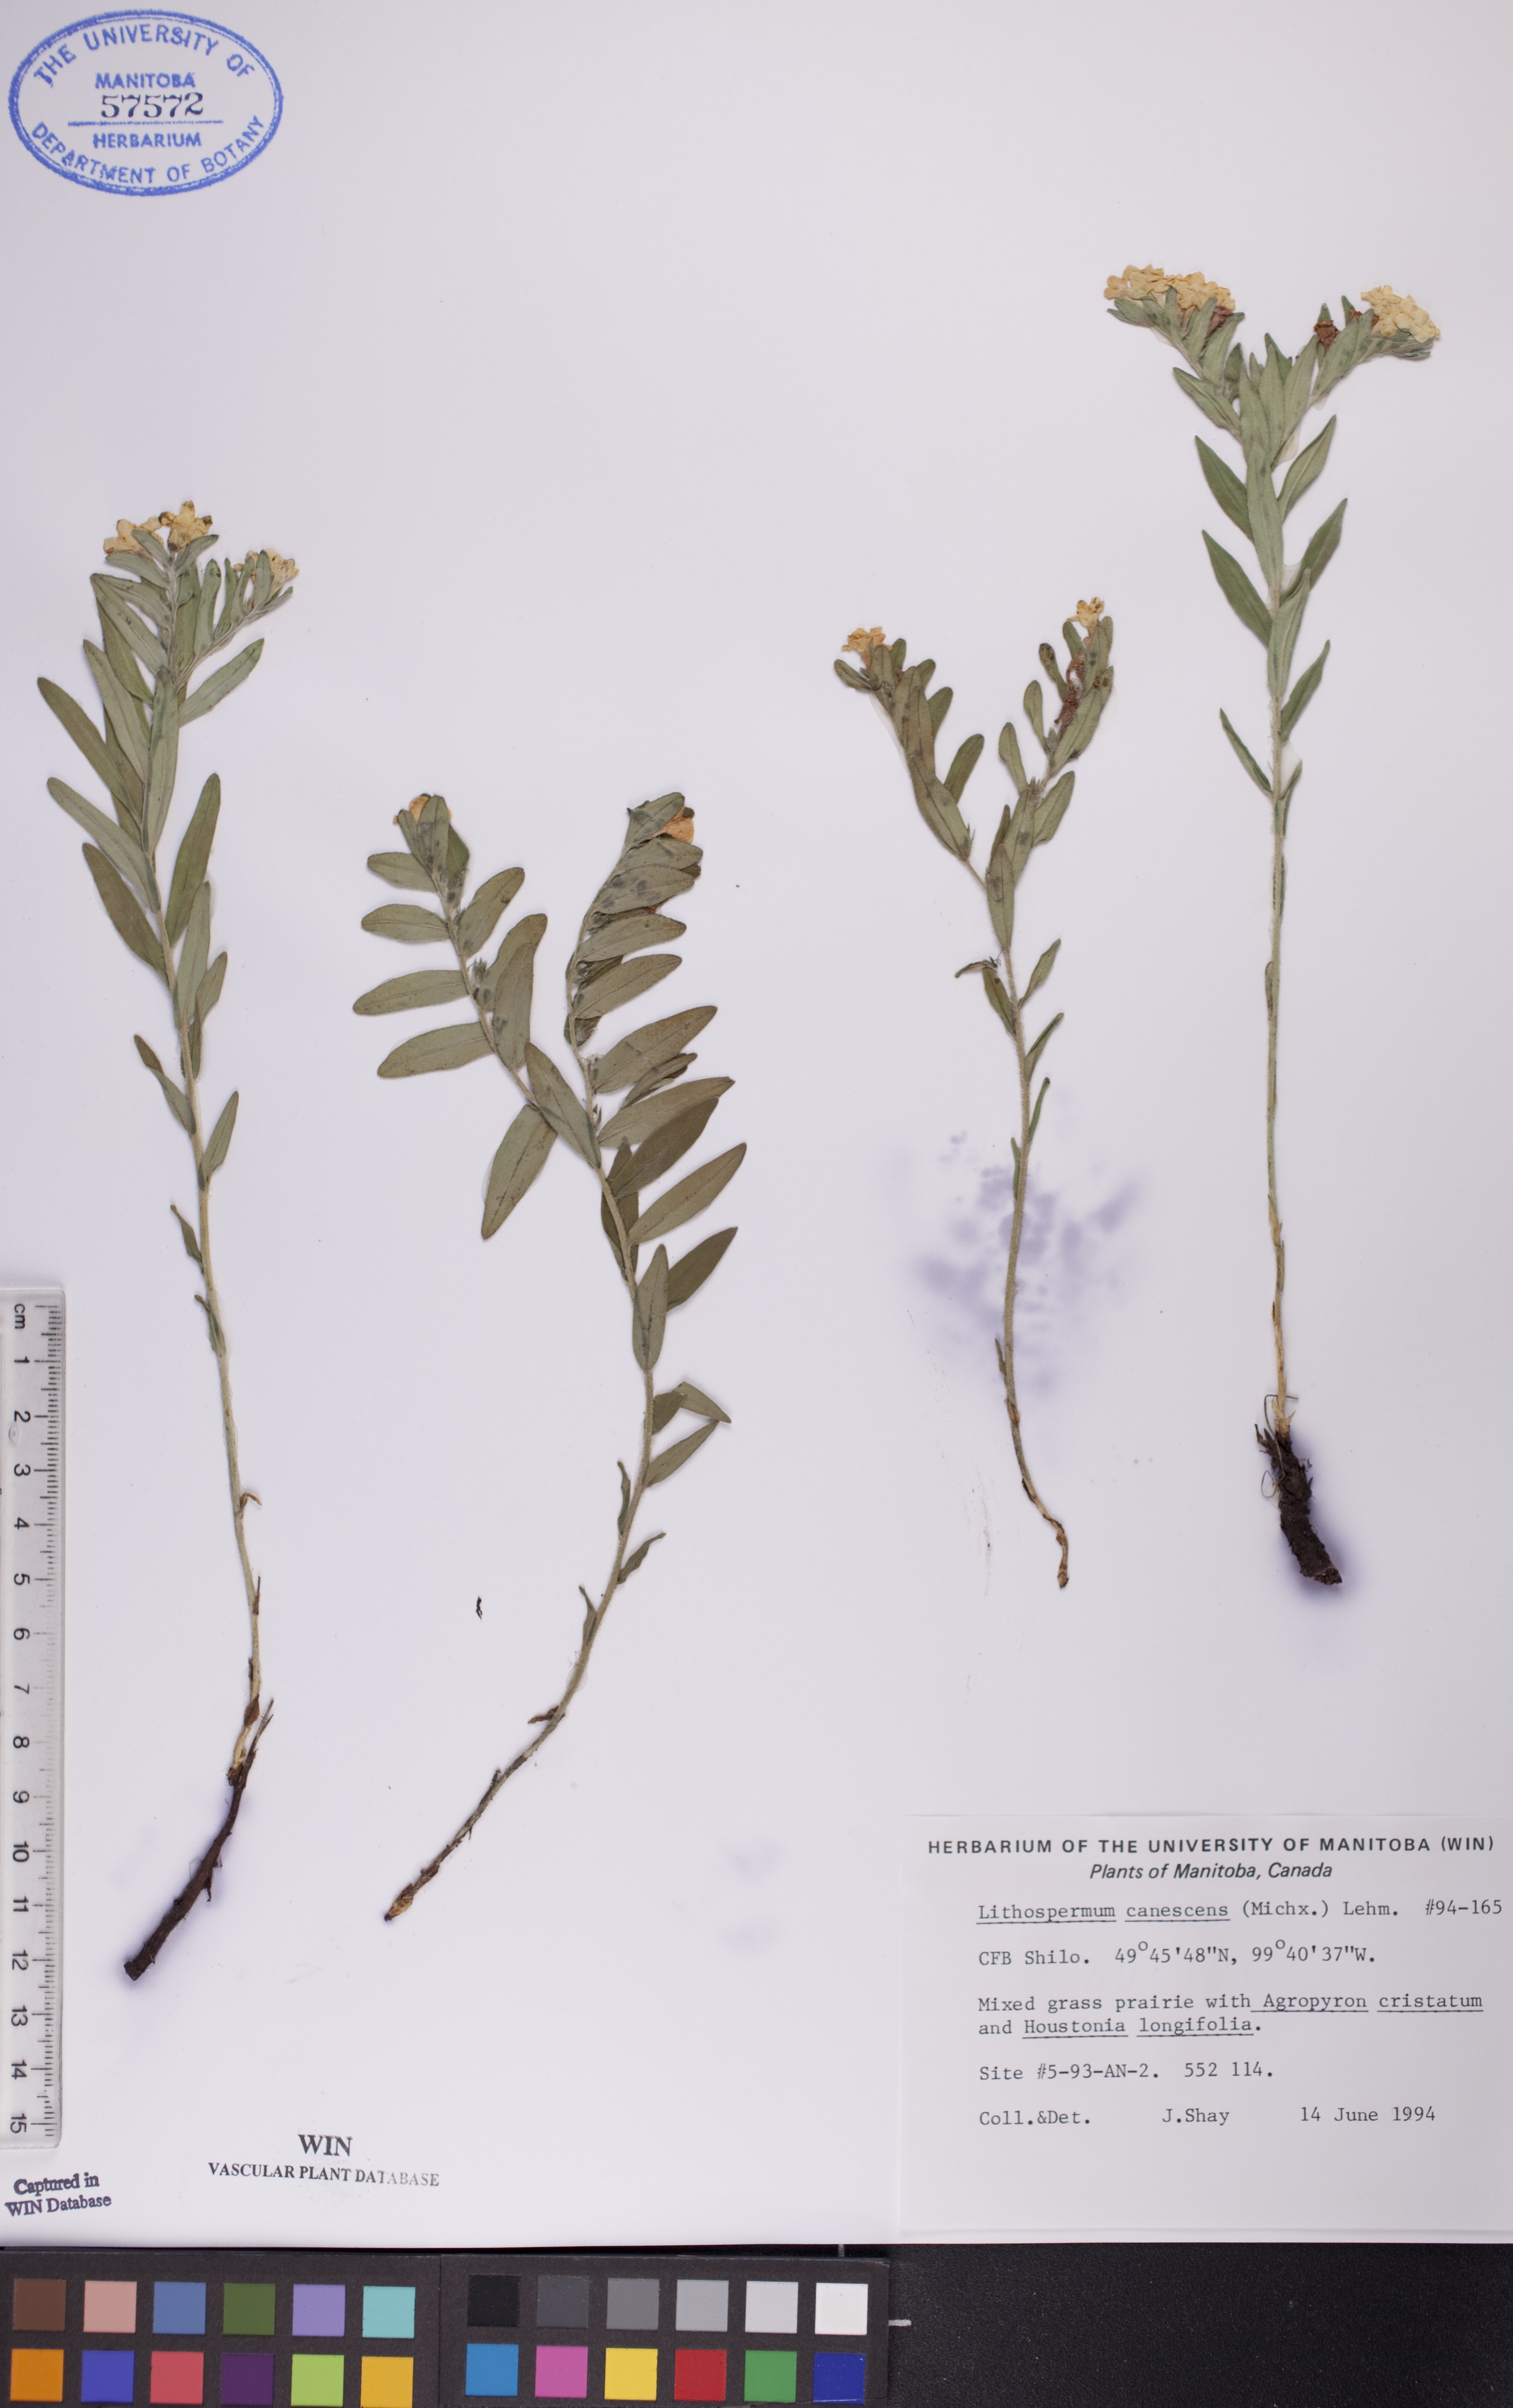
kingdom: Plantae
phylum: Tracheophyta
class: Magnoliopsida
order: Boraginales
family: Boraginaceae
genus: Lithospermum
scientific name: Lithospermum canescens
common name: Hoary puccoon
